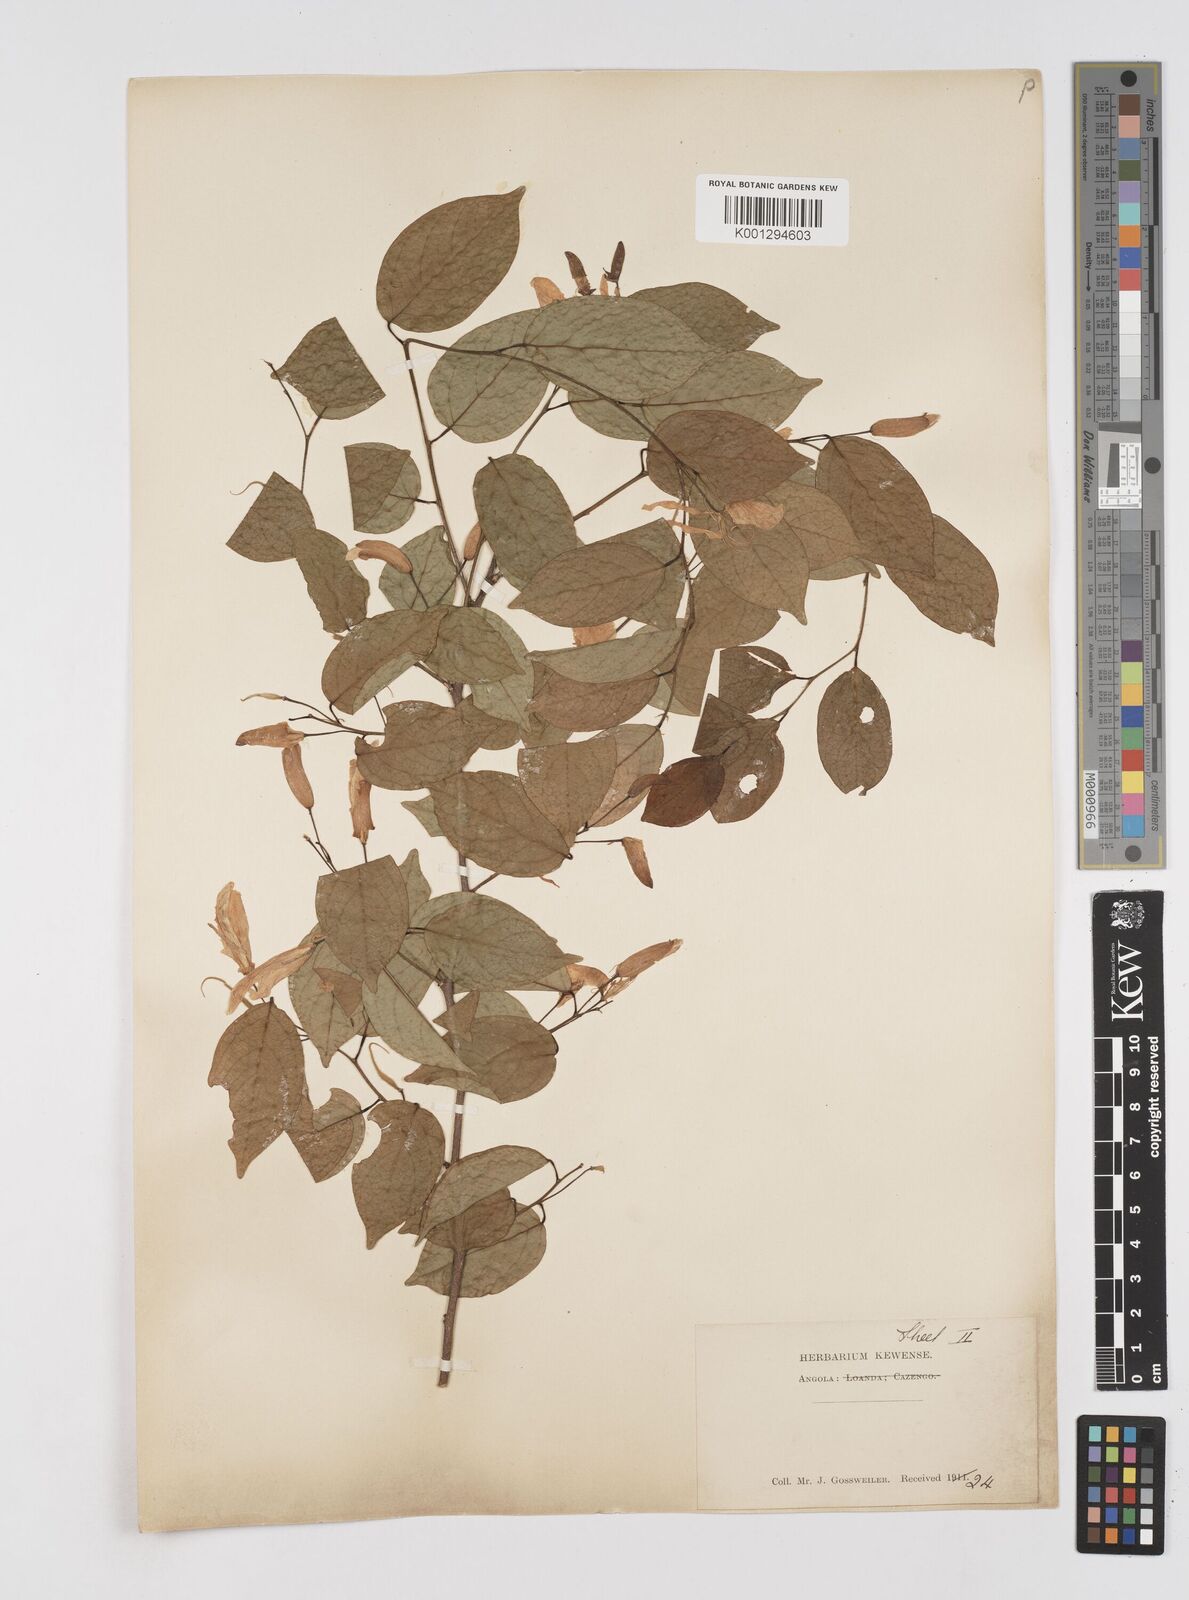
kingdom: Plantae
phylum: Tracheophyta
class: Magnoliopsida
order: Fabales
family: Fabaceae
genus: Baphia
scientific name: Baphia letestui
